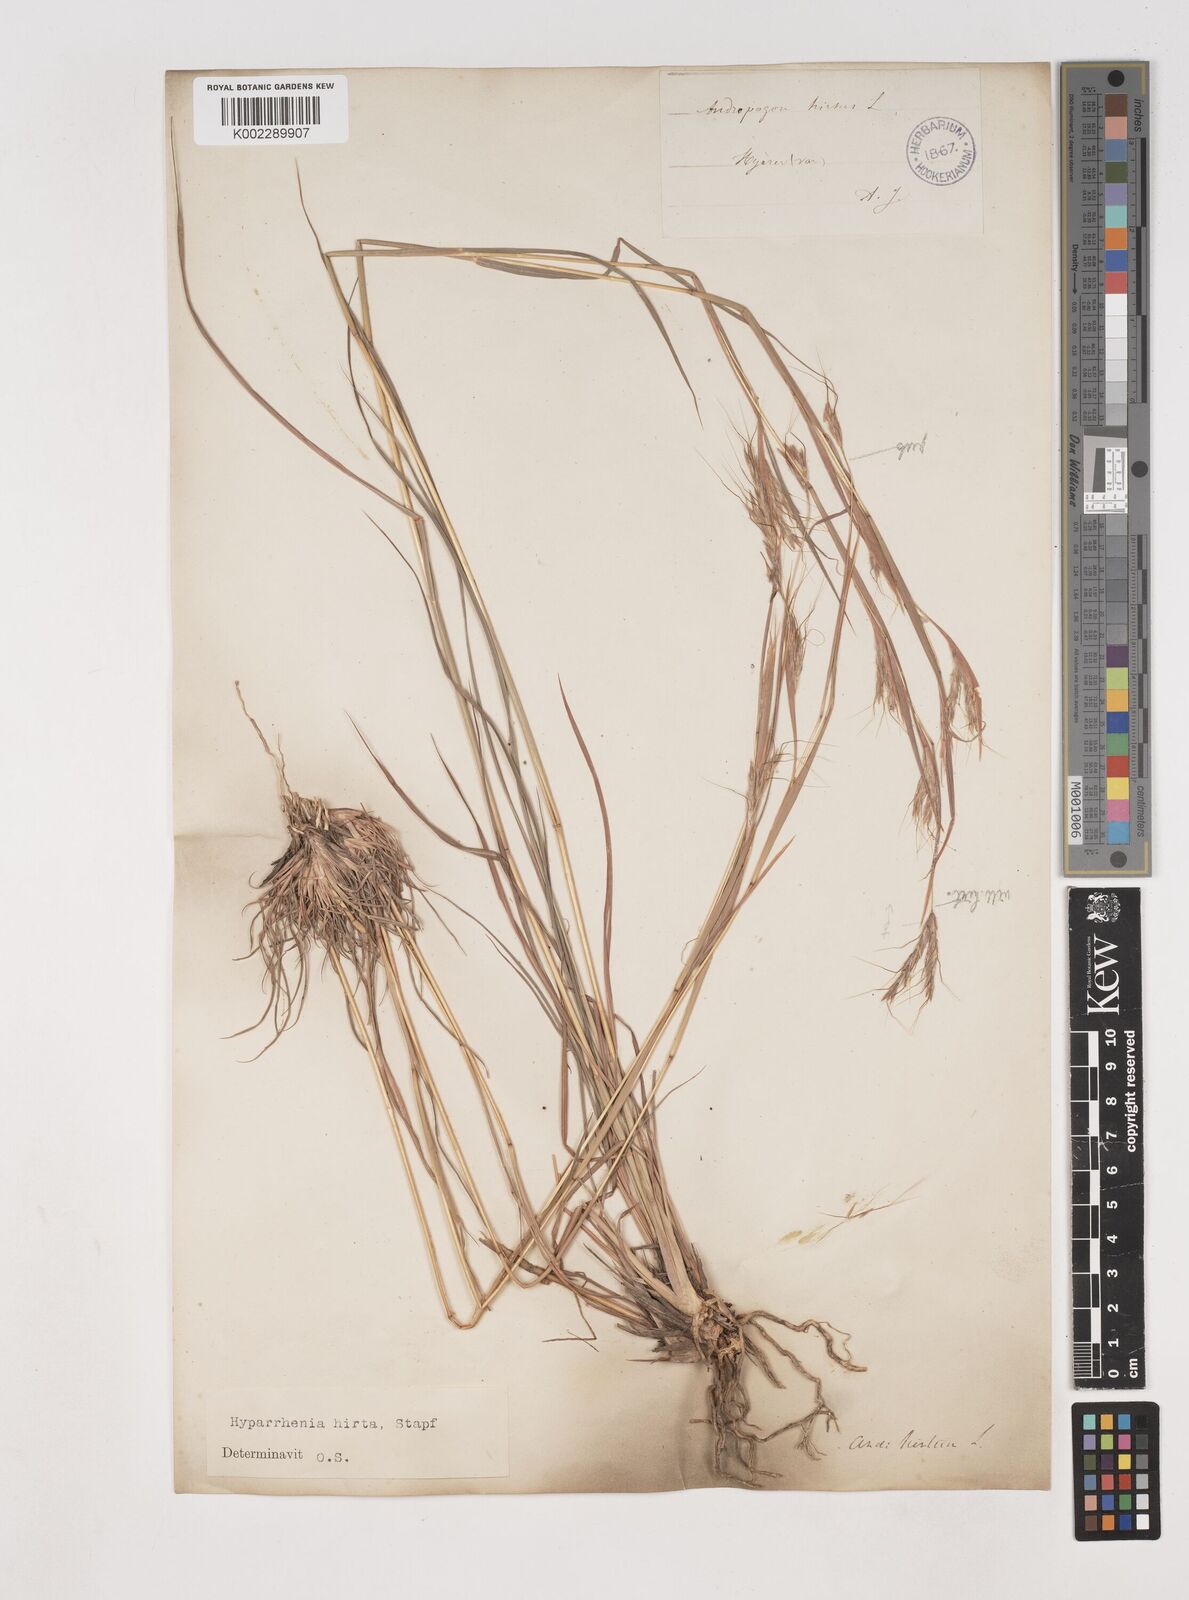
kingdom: Plantae
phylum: Tracheophyta
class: Liliopsida
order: Poales
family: Poaceae
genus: Hyparrhenia
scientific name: Hyparrhenia hirta
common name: Thatching grass
